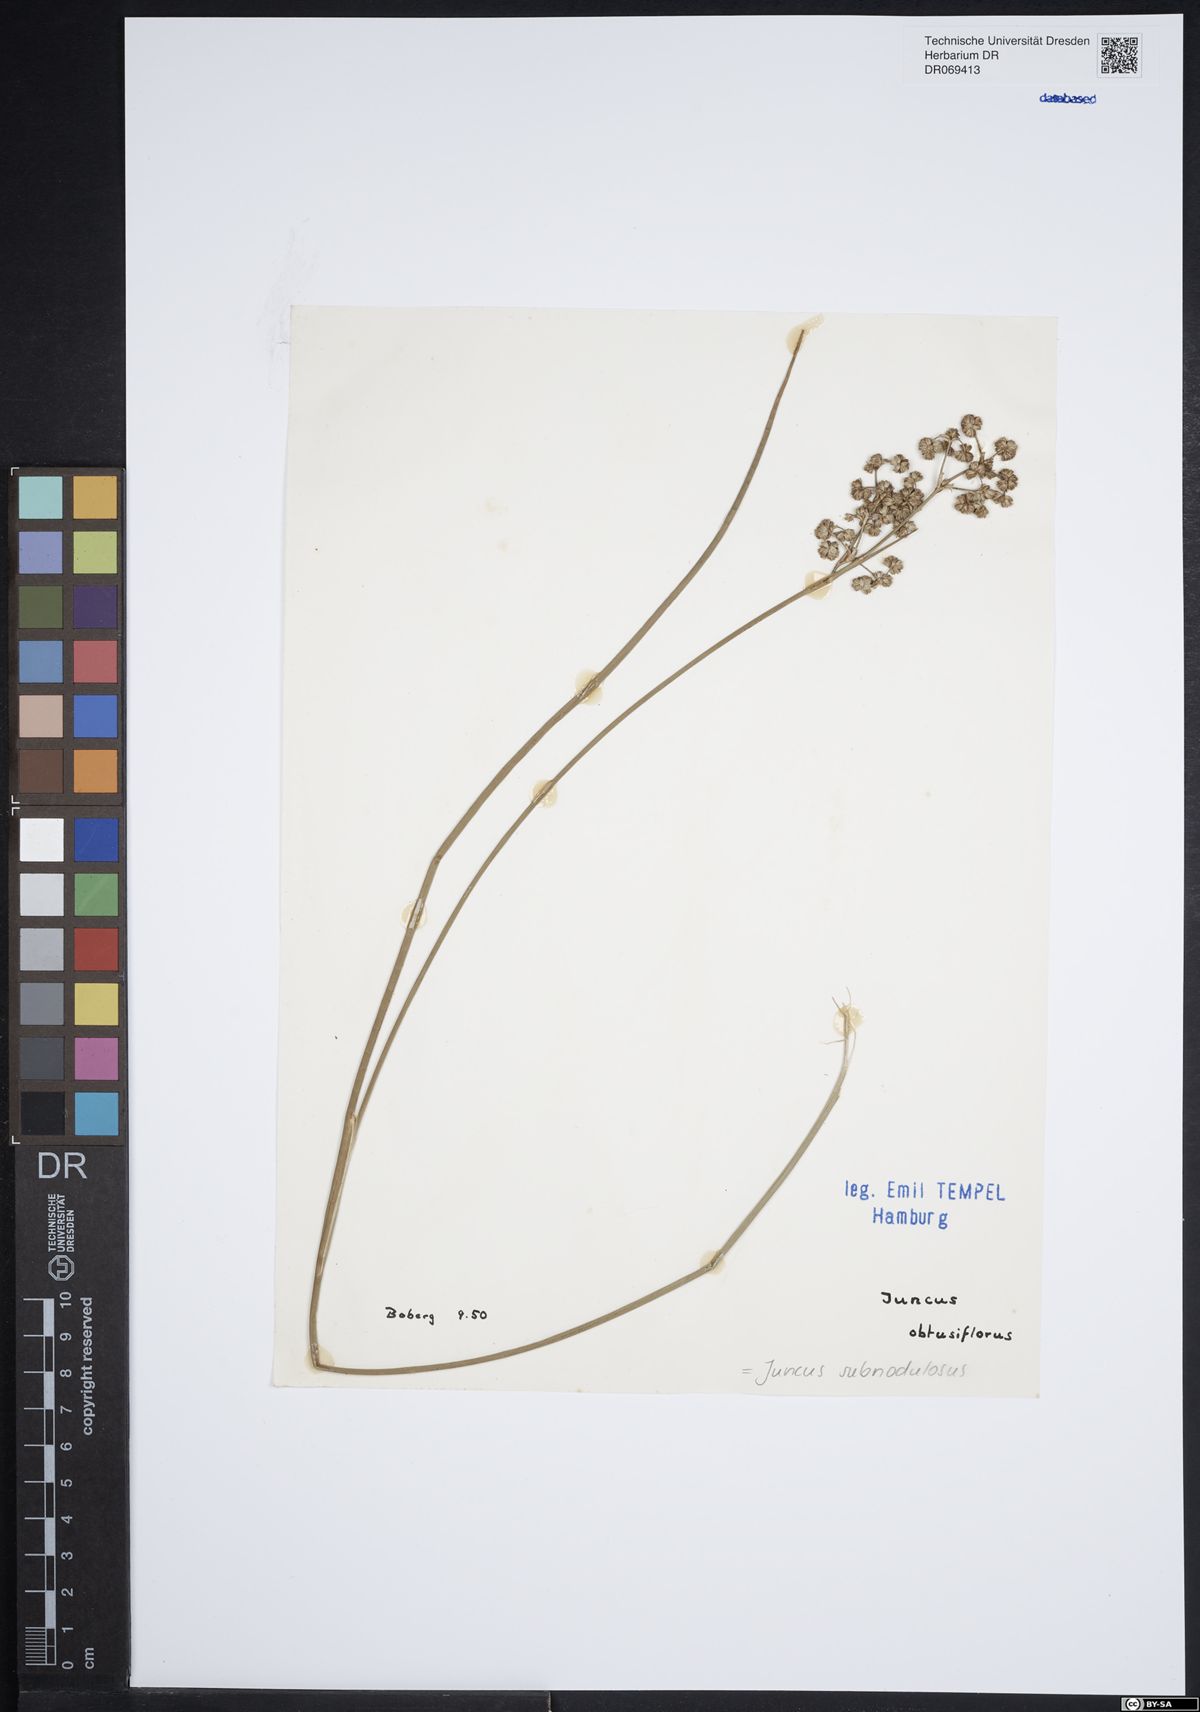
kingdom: Plantae
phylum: Tracheophyta
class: Liliopsida
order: Poales
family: Juncaceae
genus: Juncus
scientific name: Juncus subnodulosus
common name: Blunt-flowered rush
